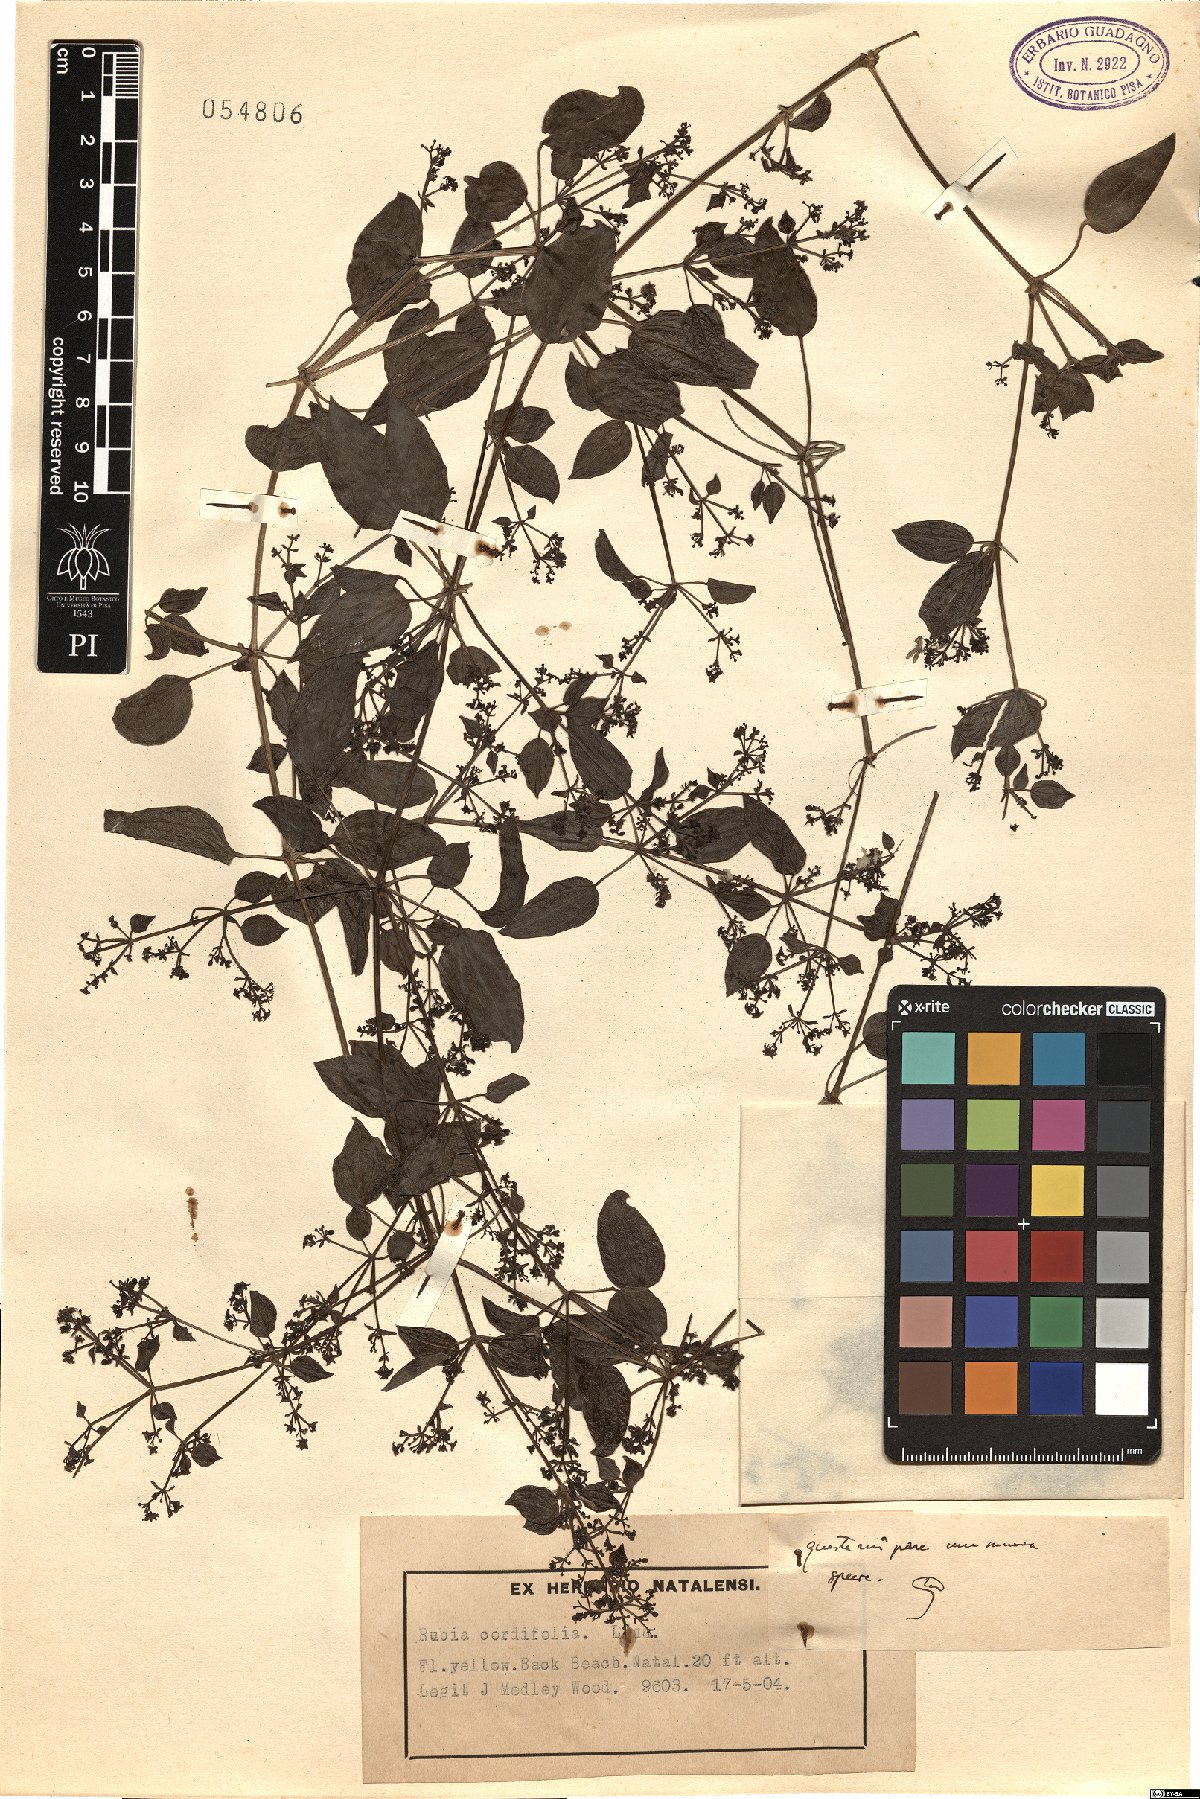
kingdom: Plantae
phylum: Tracheophyta
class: Magnoliopsida
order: Gentianales
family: Rubiaceae
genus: Rubia
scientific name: Rubia cordifolia
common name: Indian madder
